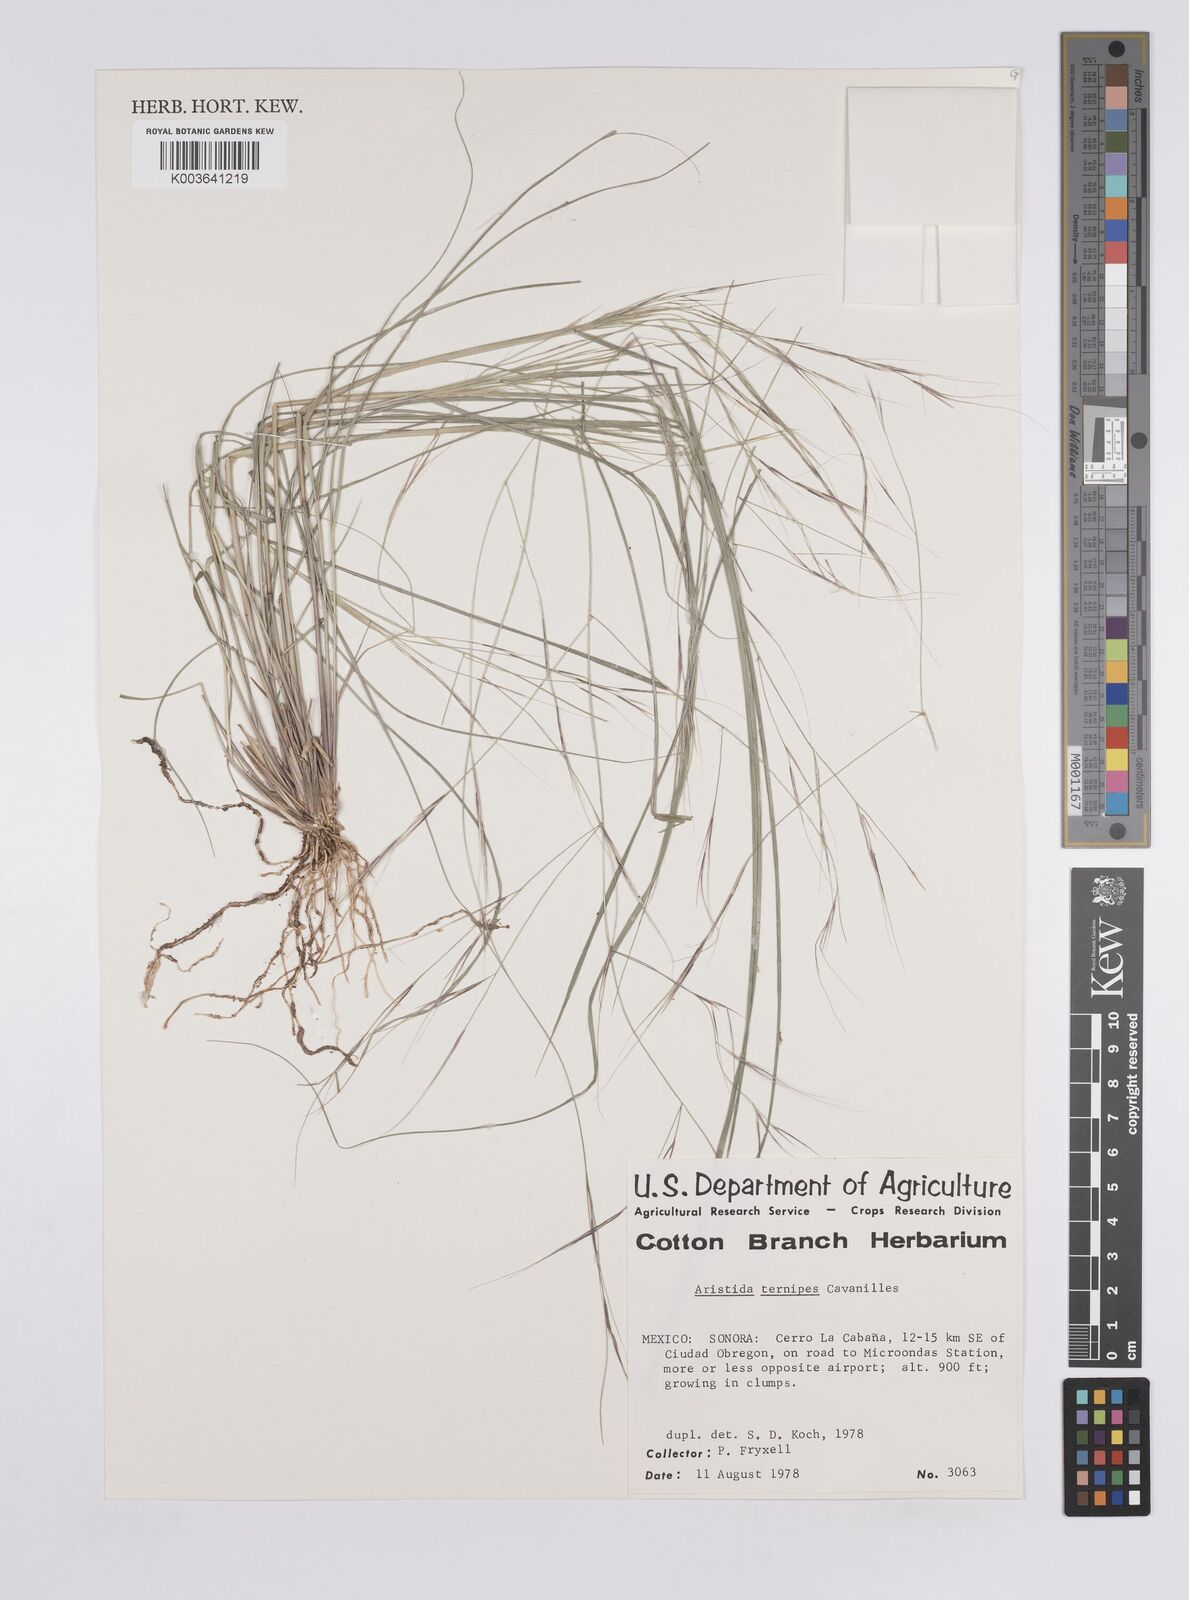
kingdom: Plantae
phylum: Tracheophyta
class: Liliopsida
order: Poales
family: Poaceae
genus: Aristida
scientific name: Aristida
